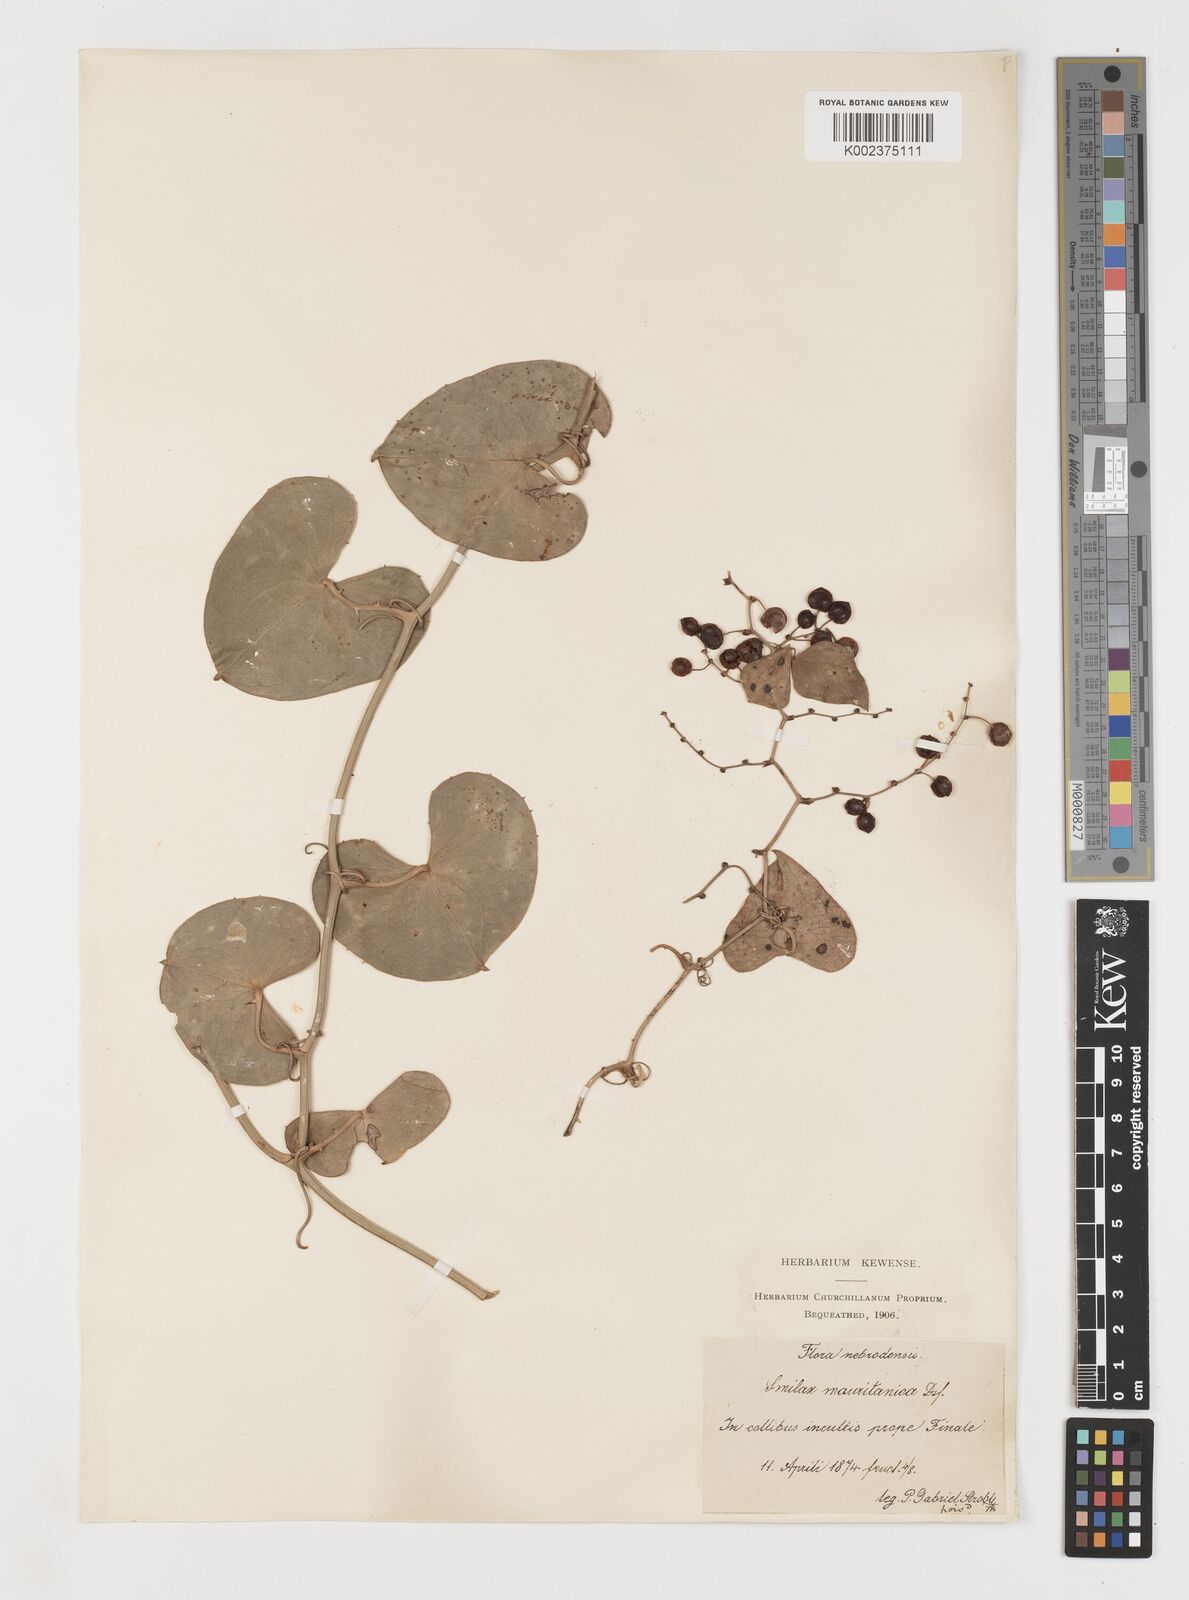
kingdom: Plantae
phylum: Tracheophyta
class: Liliopsida
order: Liliales
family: Smilacaceae
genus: Smilax
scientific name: Smilax aspera
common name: Common smilax
